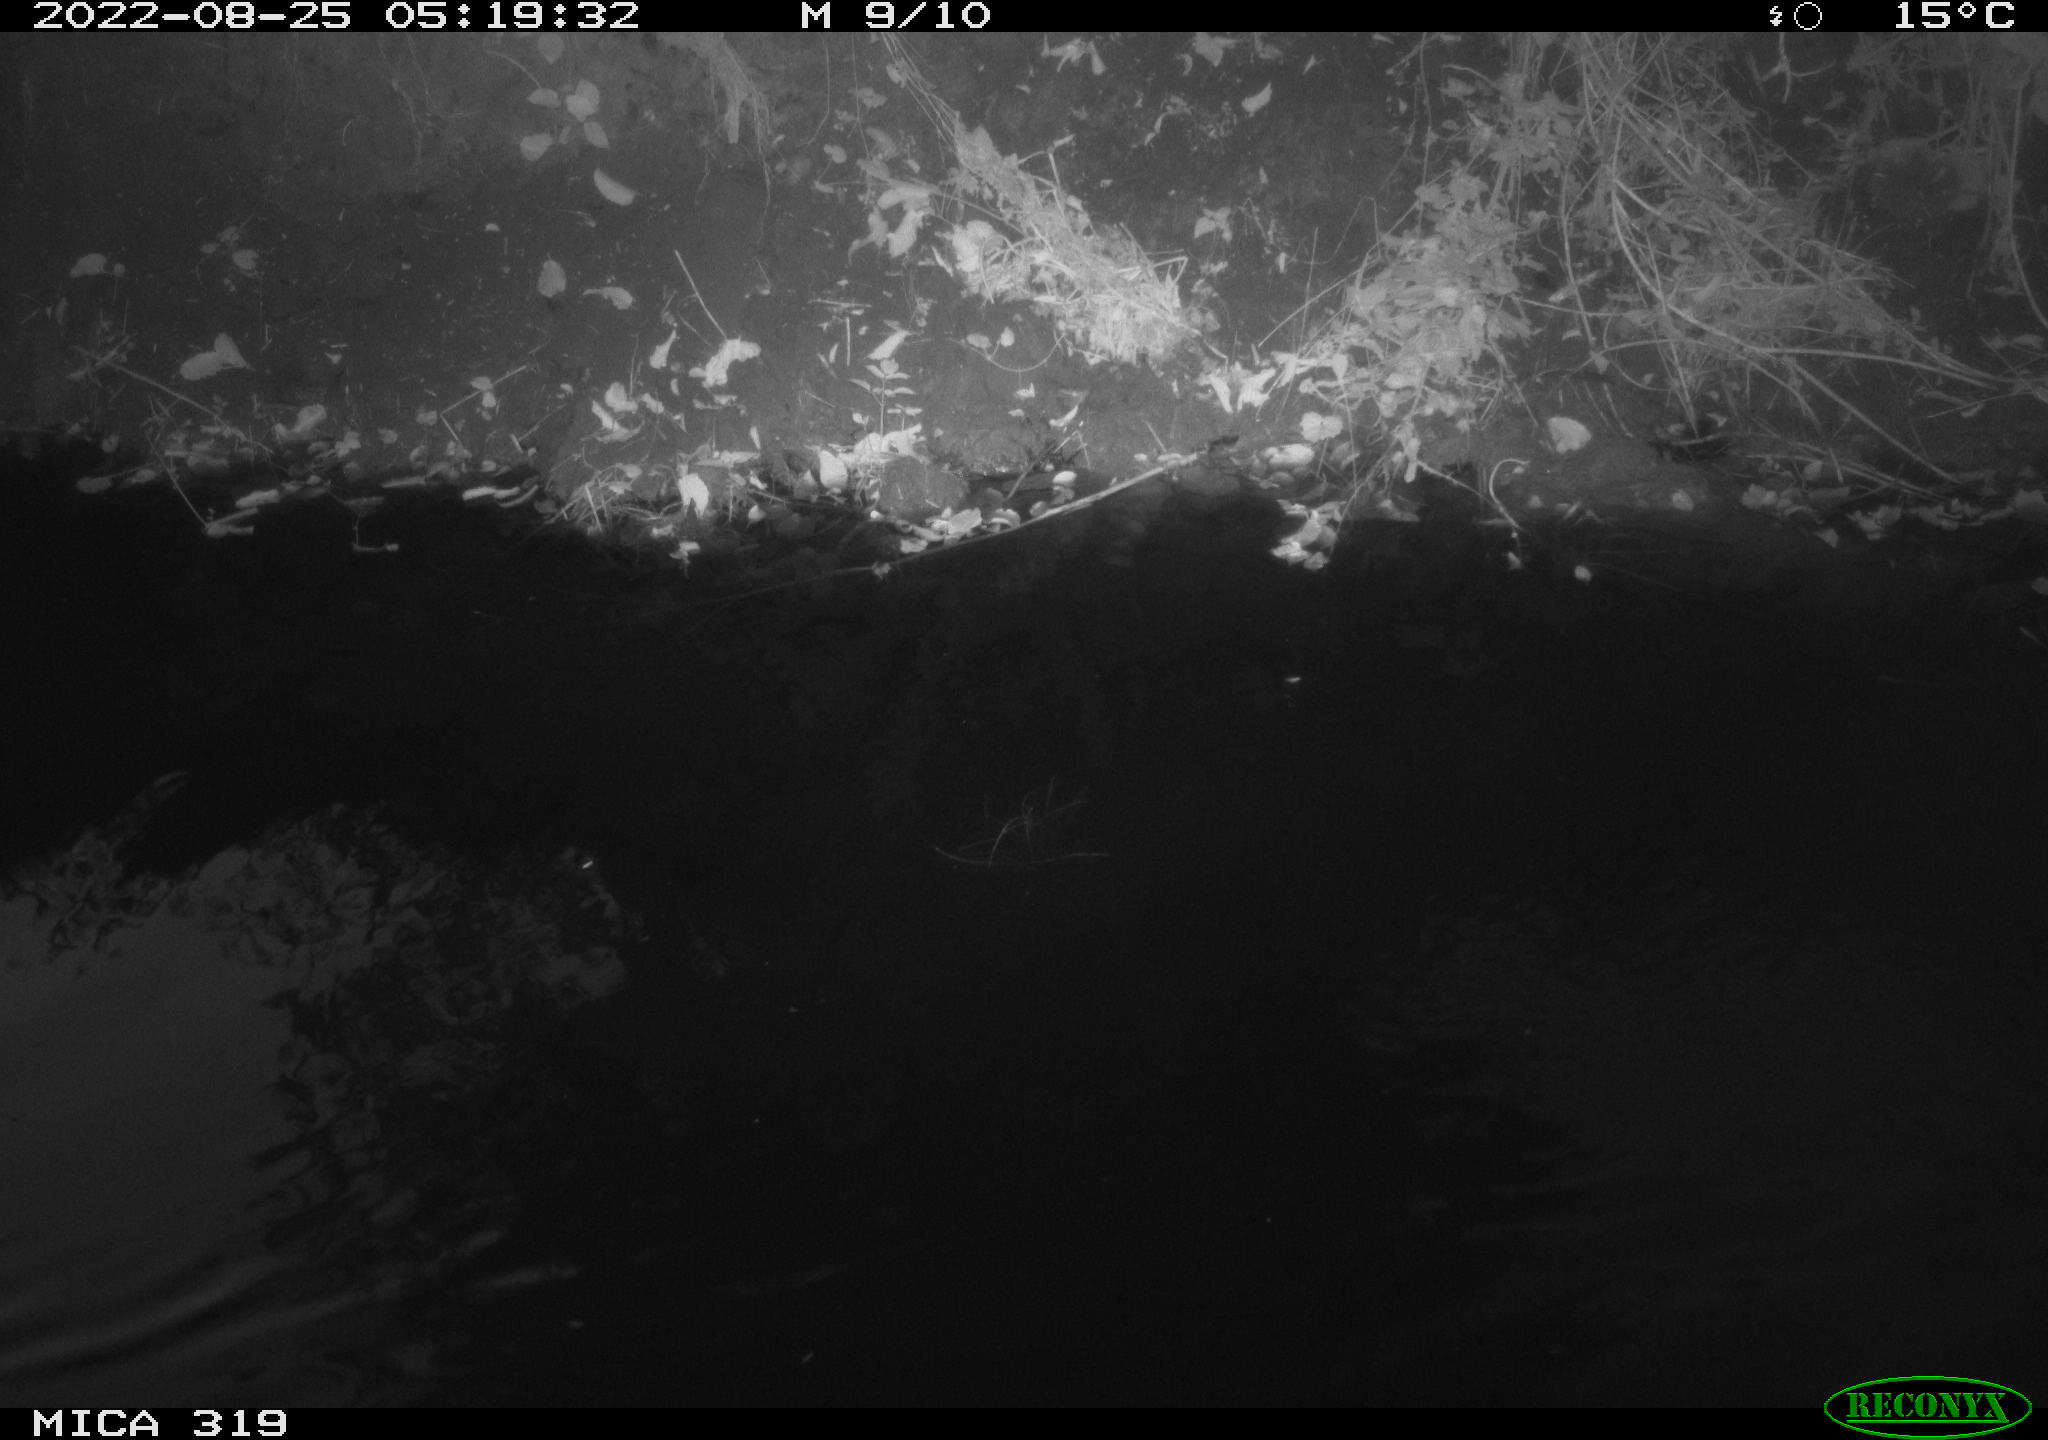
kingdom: Animalia
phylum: Chordata
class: Aves
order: Anseriformes
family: Anatidae
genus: Anas
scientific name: Anas
